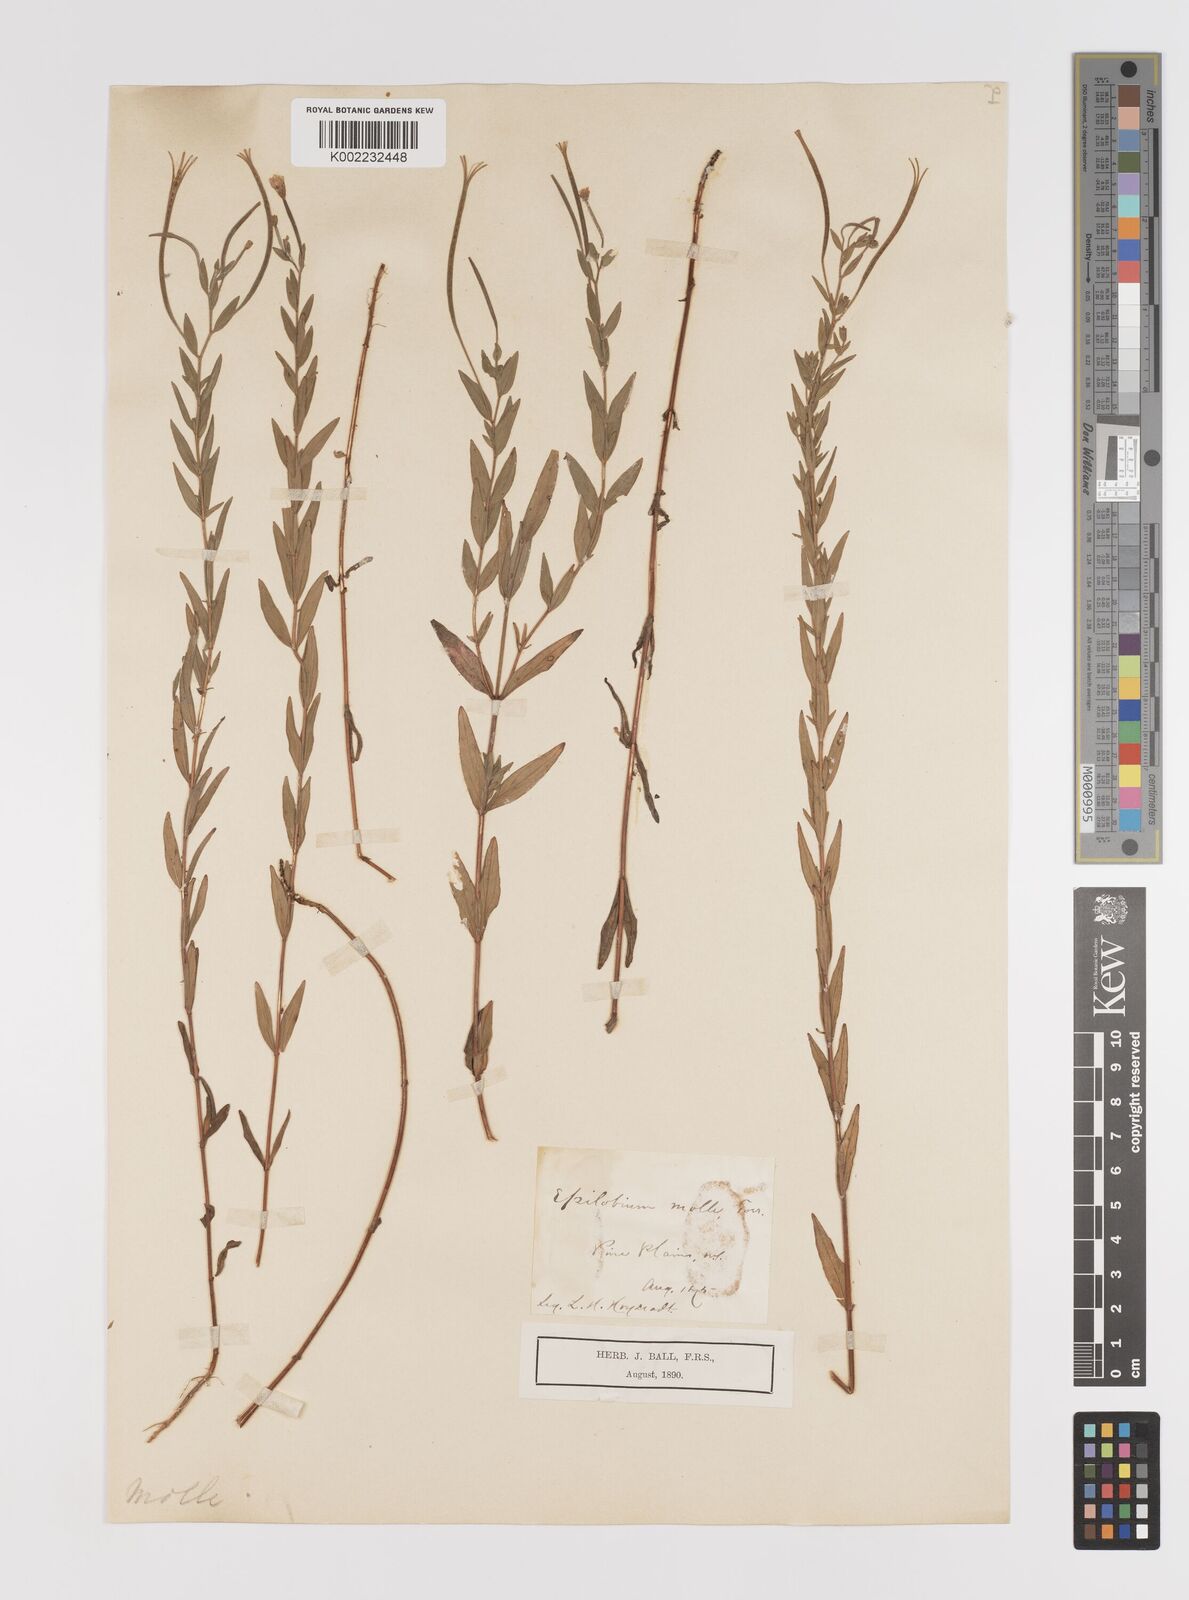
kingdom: Plantae
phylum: Tracheophyta
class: Magnoliopsida
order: Myrtales
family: Onagraceae
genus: Epilobium
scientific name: Epilobium densum
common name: Downy willowherb
